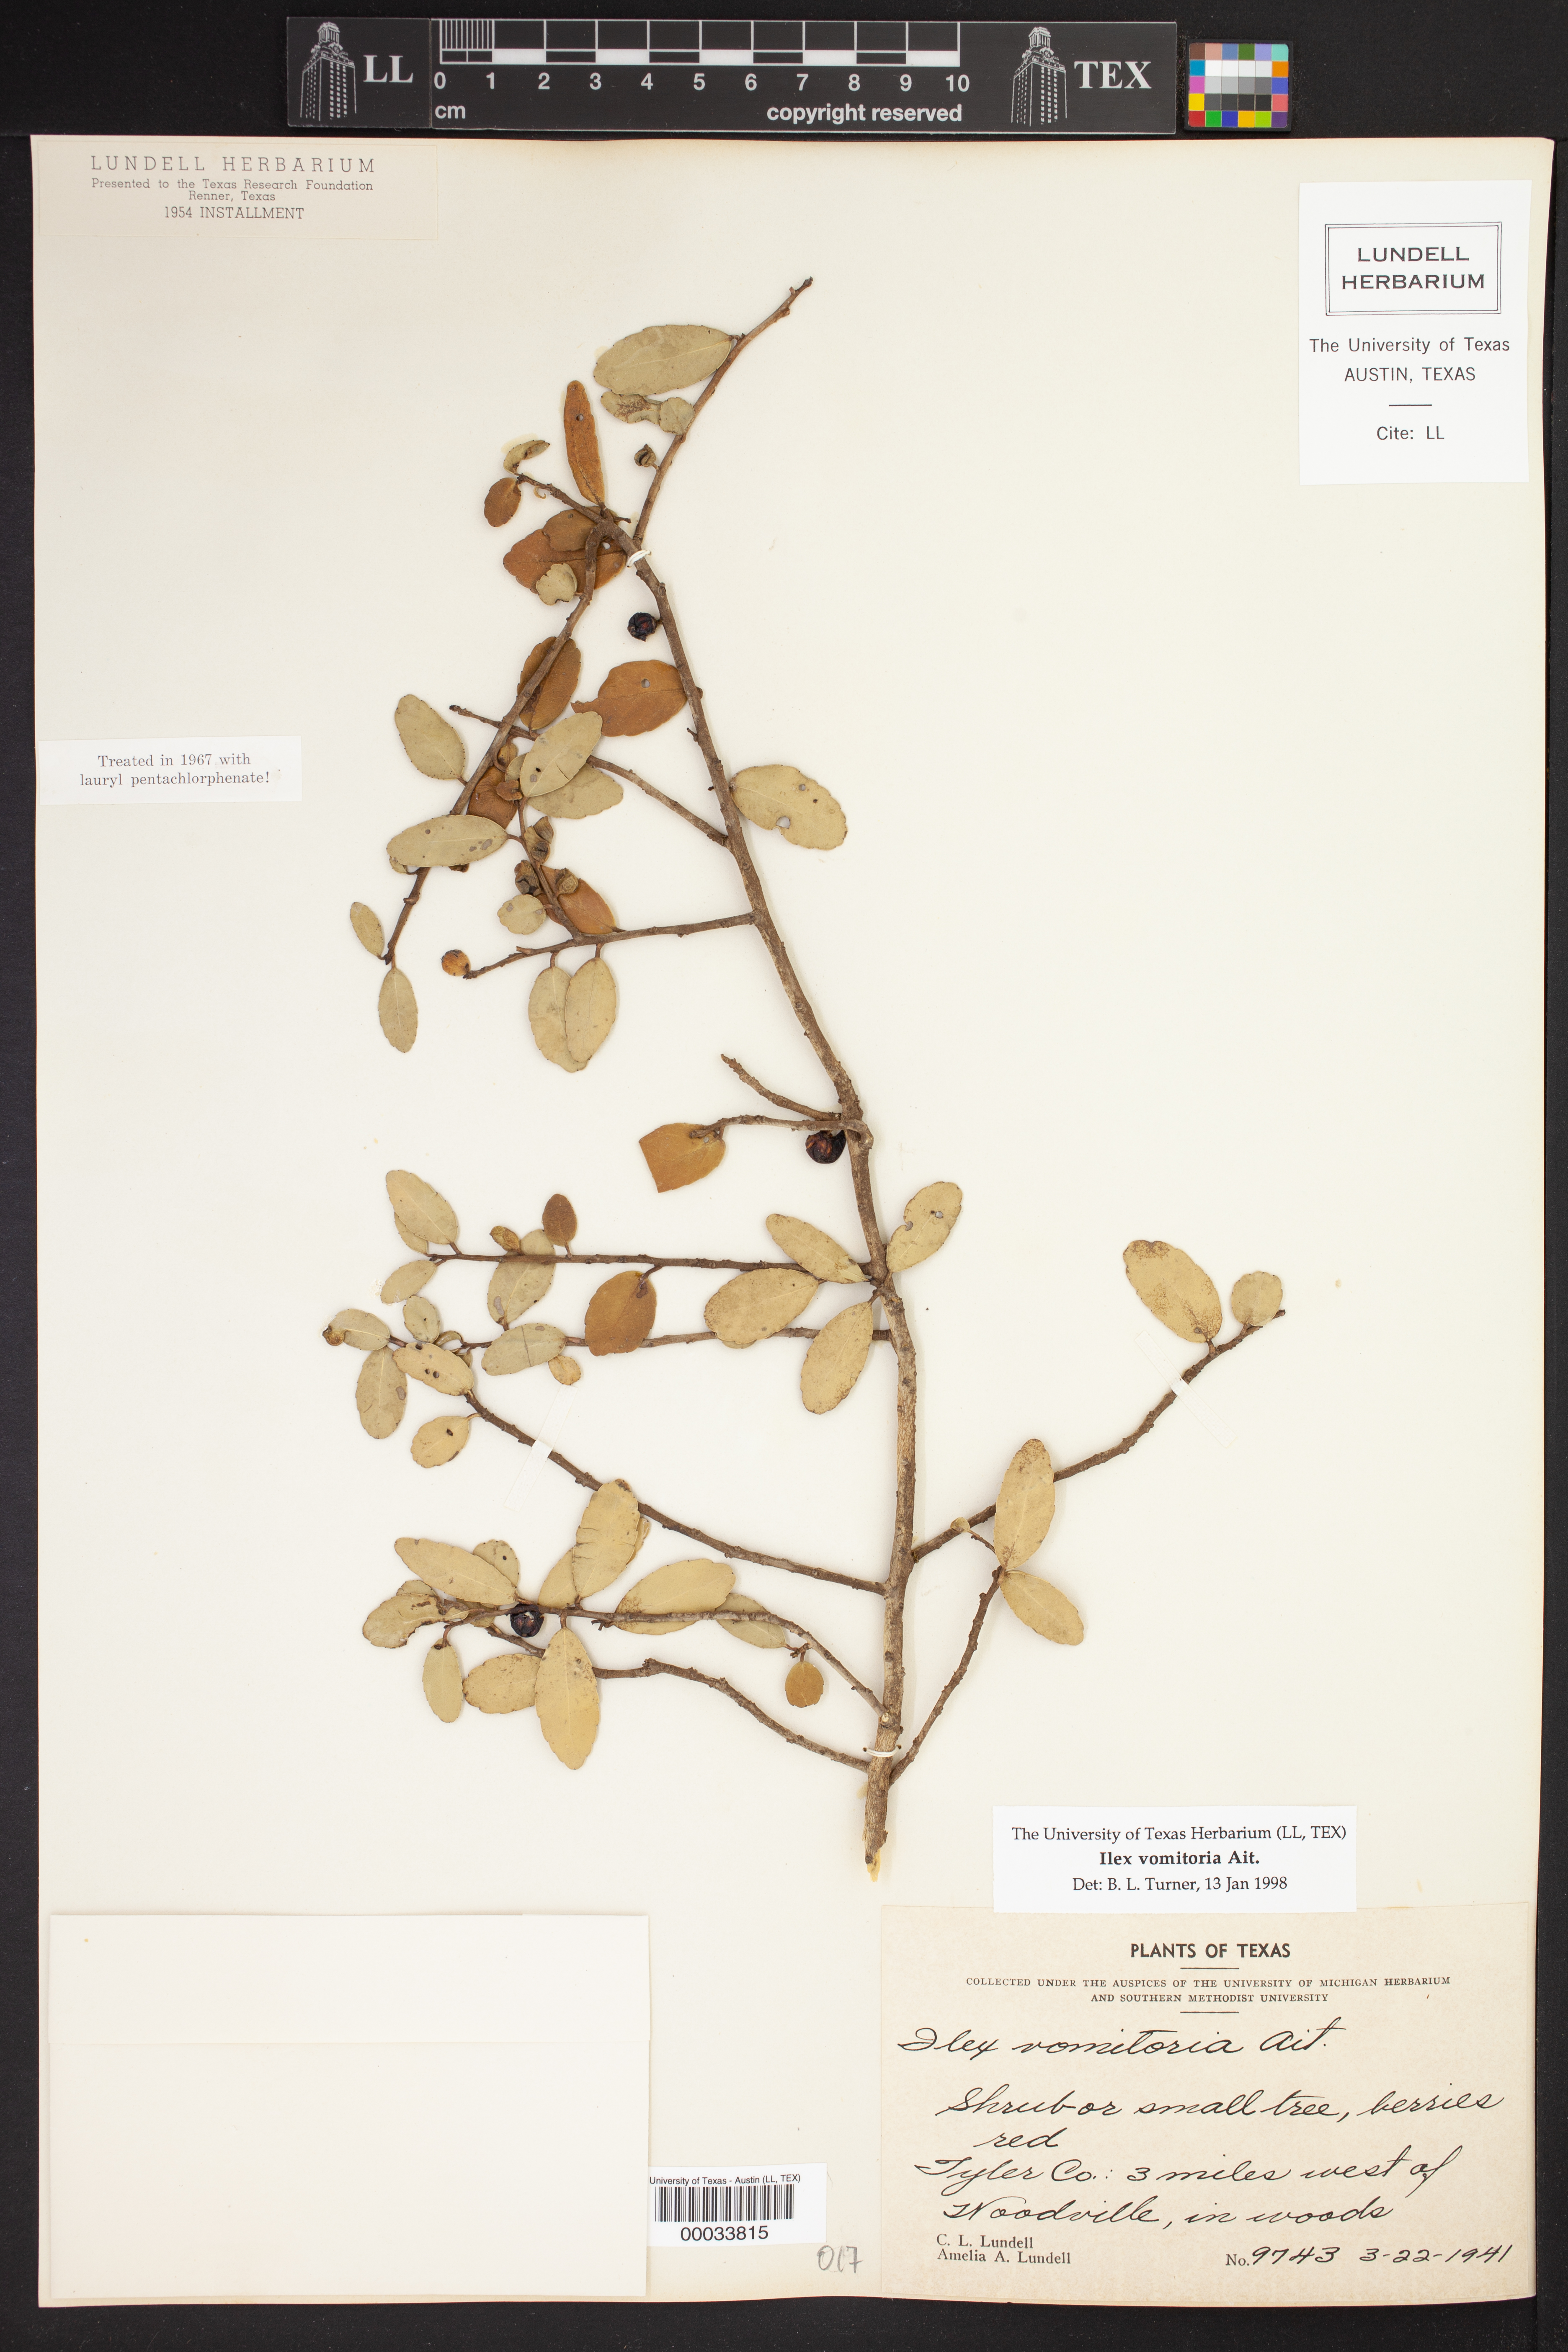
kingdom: Plantae
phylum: Tracheophyta
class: Magnoliopsida
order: Aquifoliales
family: Aquifoliaceae
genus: Ilex
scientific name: Ilex vomitoria
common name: Yaupon holly
